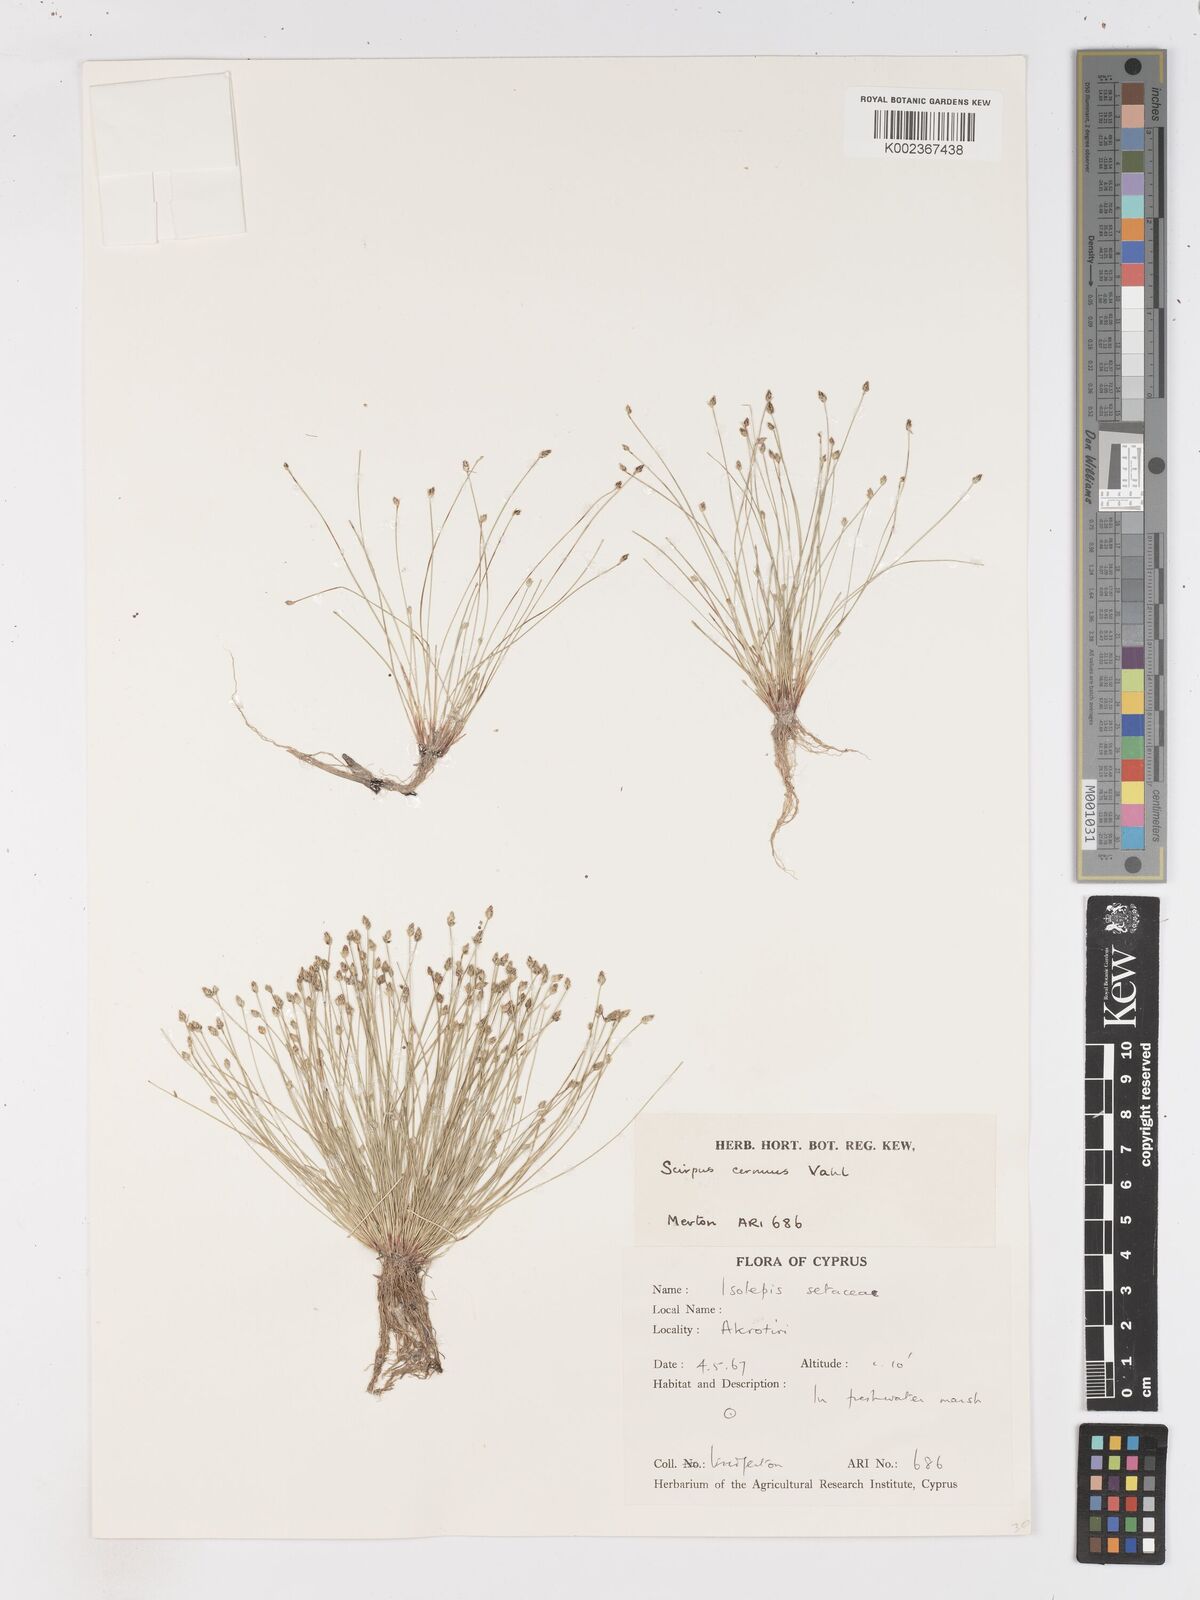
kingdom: Plantae
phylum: Tracheophyta
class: Liliopsida
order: Poales
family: Cyperaceae
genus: Isolepis
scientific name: Isolepis cernua
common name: Slender club-rush
